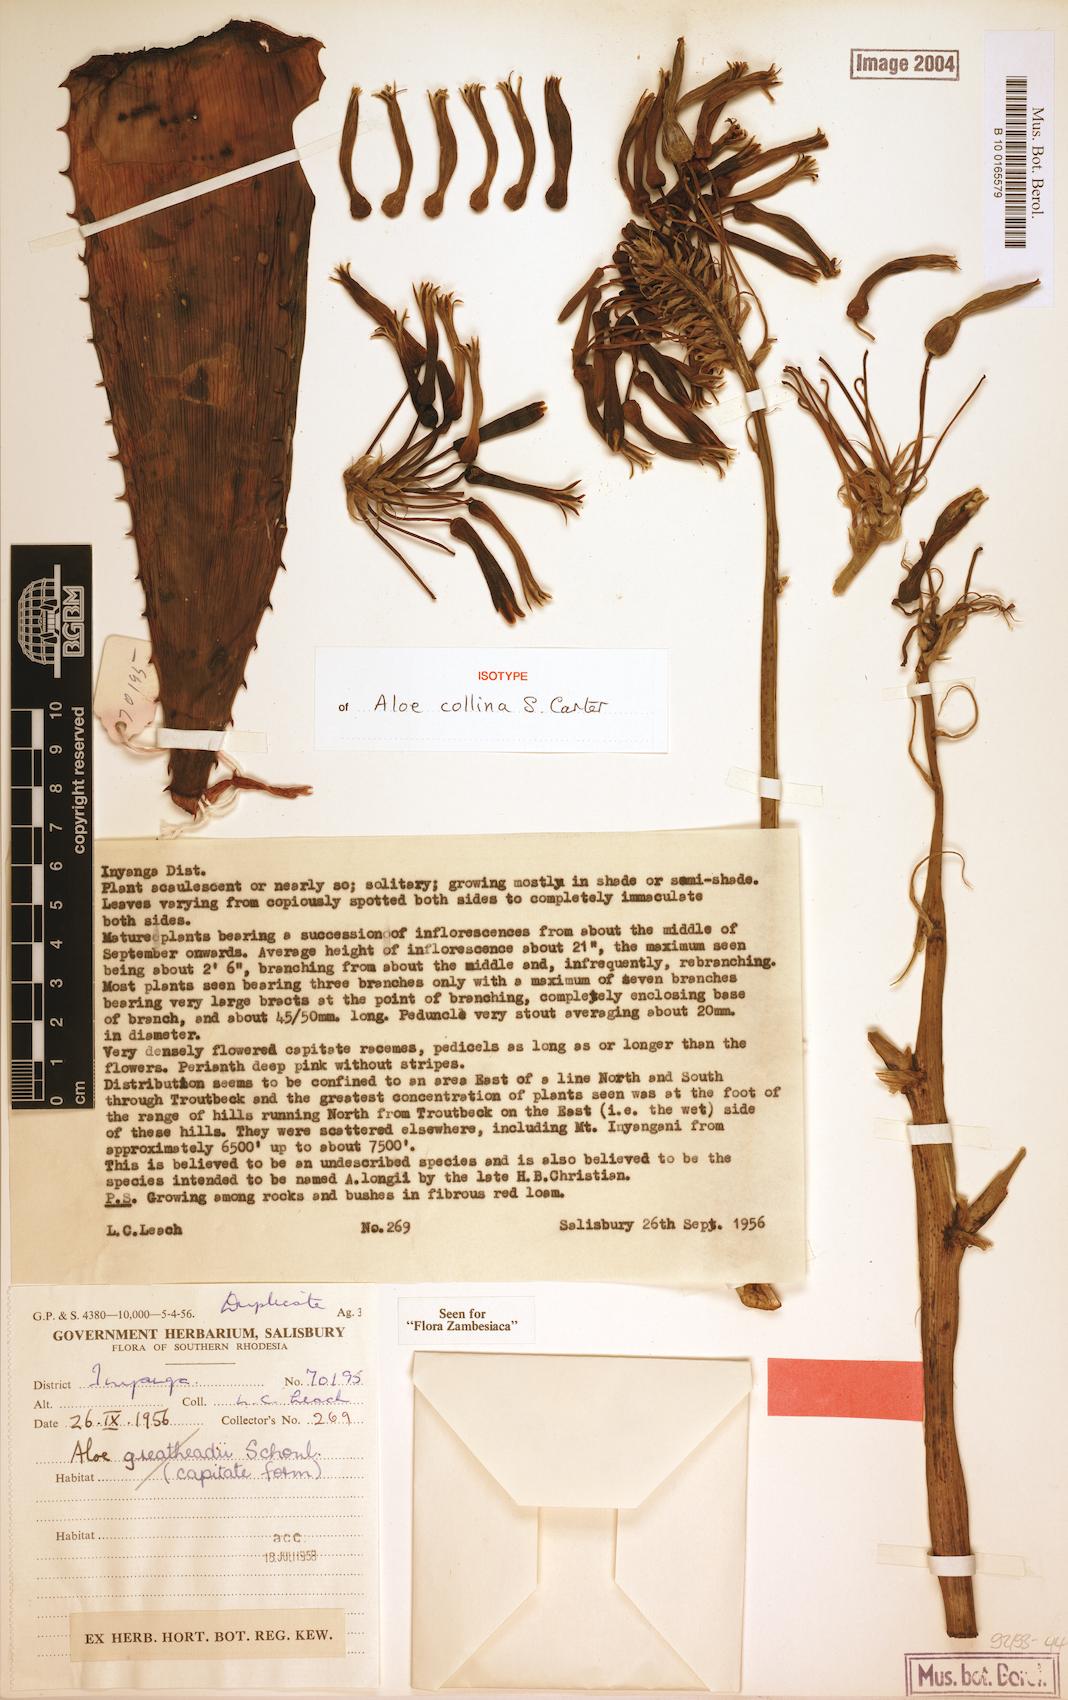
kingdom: Plantae
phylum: Tracheophyta
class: Liliopsida
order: Asparagales
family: Asphodelaceae
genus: Aloe
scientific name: Aloe collina
